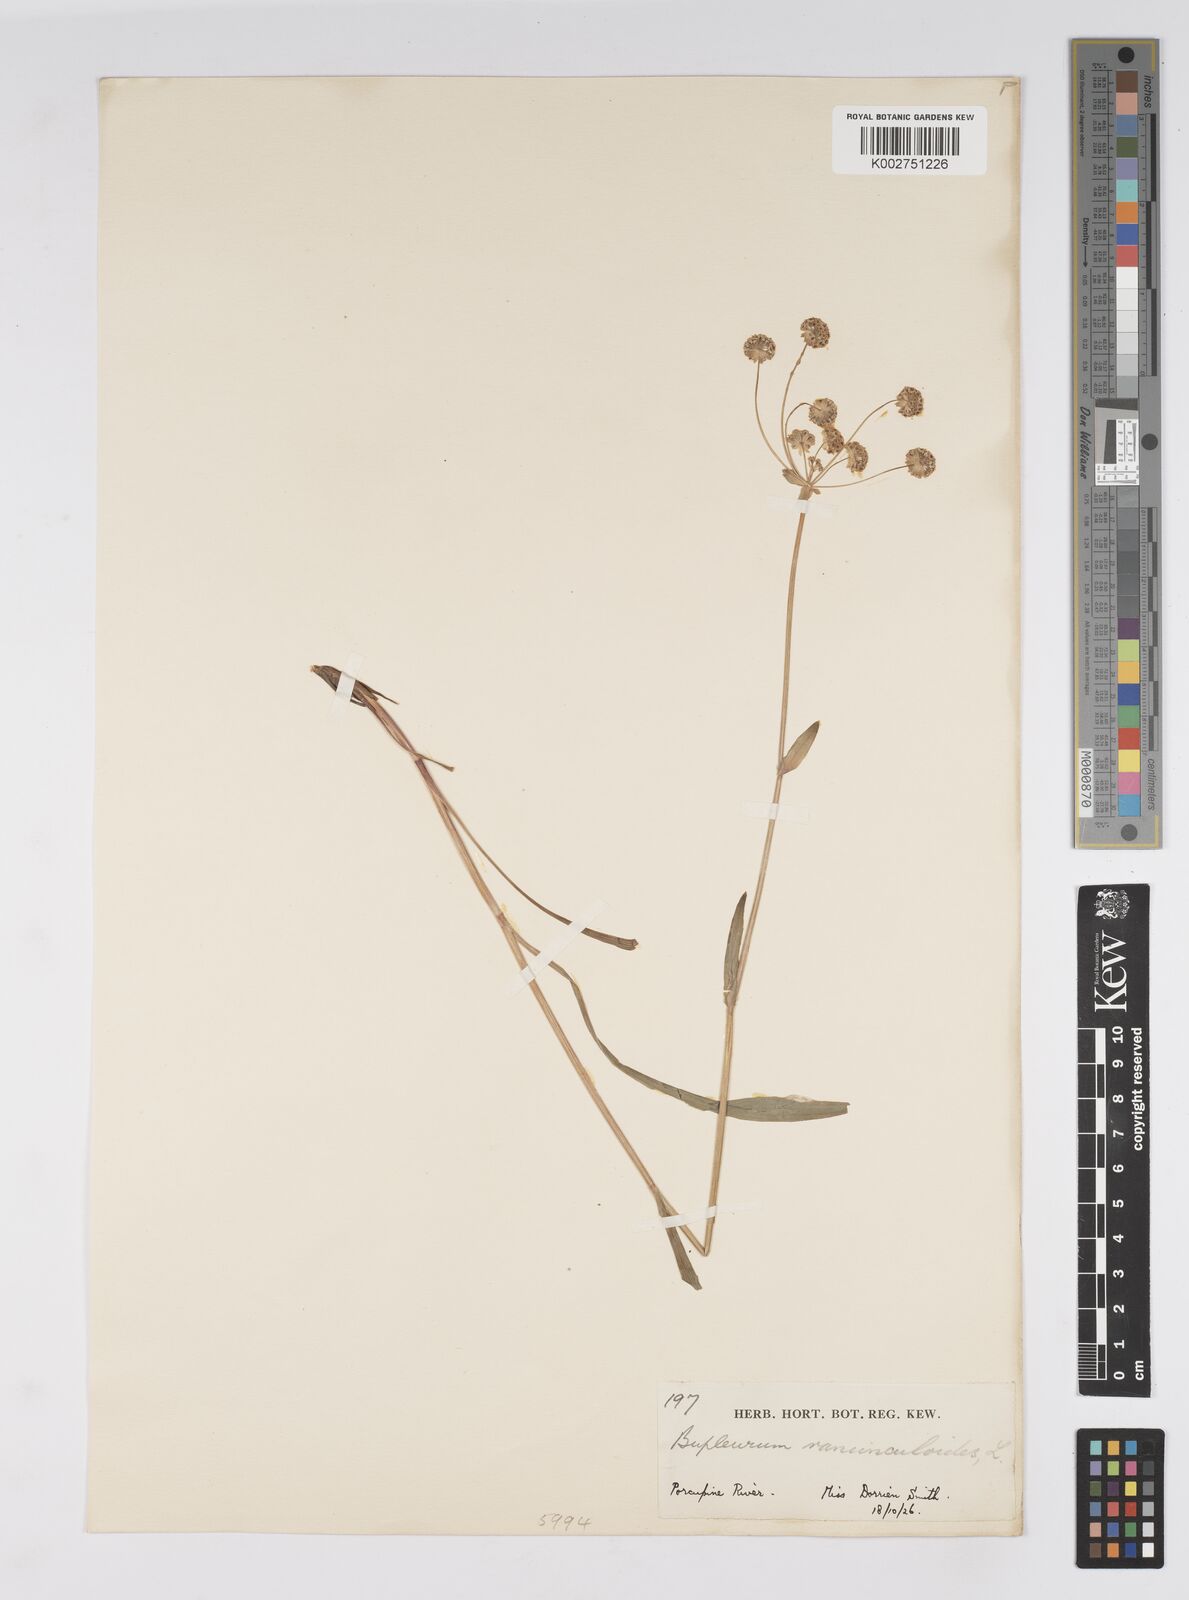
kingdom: Plantae
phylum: Tracheophyta
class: Magnoliopsida
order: Apiales
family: Apiaceae
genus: Bupleurum
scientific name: Bupleurum americanum
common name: American thoroughwax
